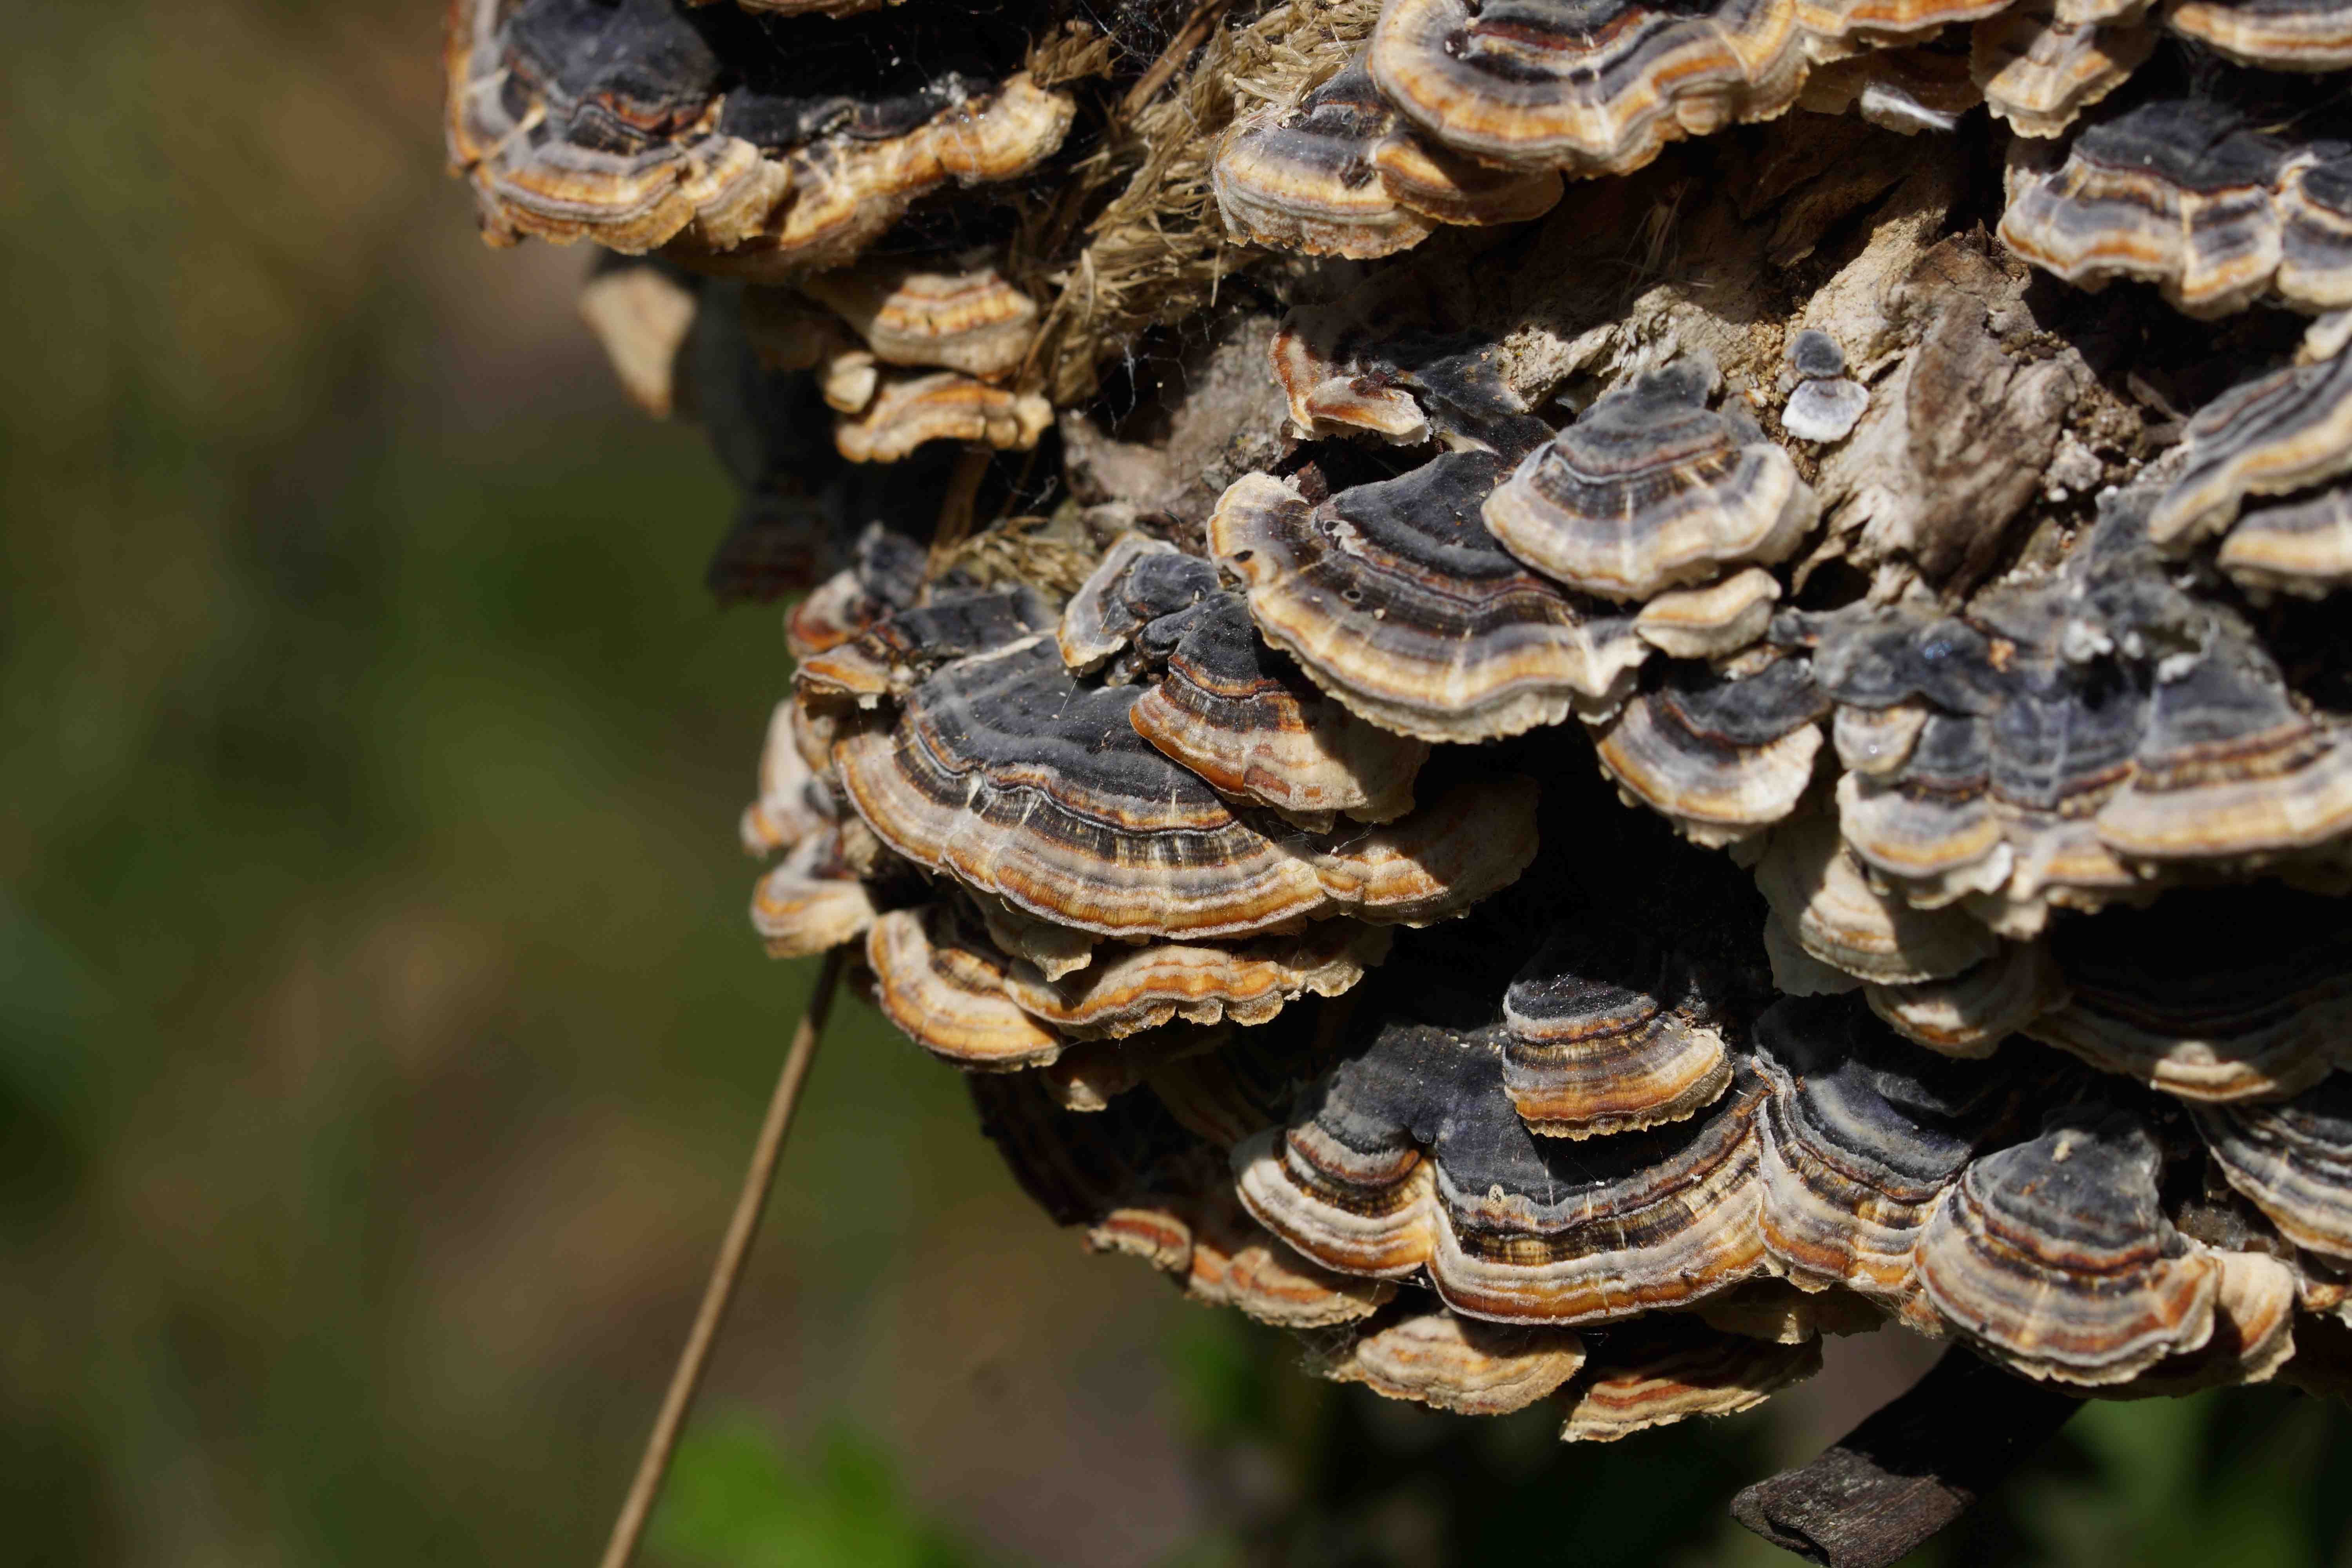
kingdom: Fungi
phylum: Basidiomycota
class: Agaricomycetes
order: Polyporales
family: Polyporaceae
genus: Trametes
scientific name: Trametes versicolor
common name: broget læderporesvamp
